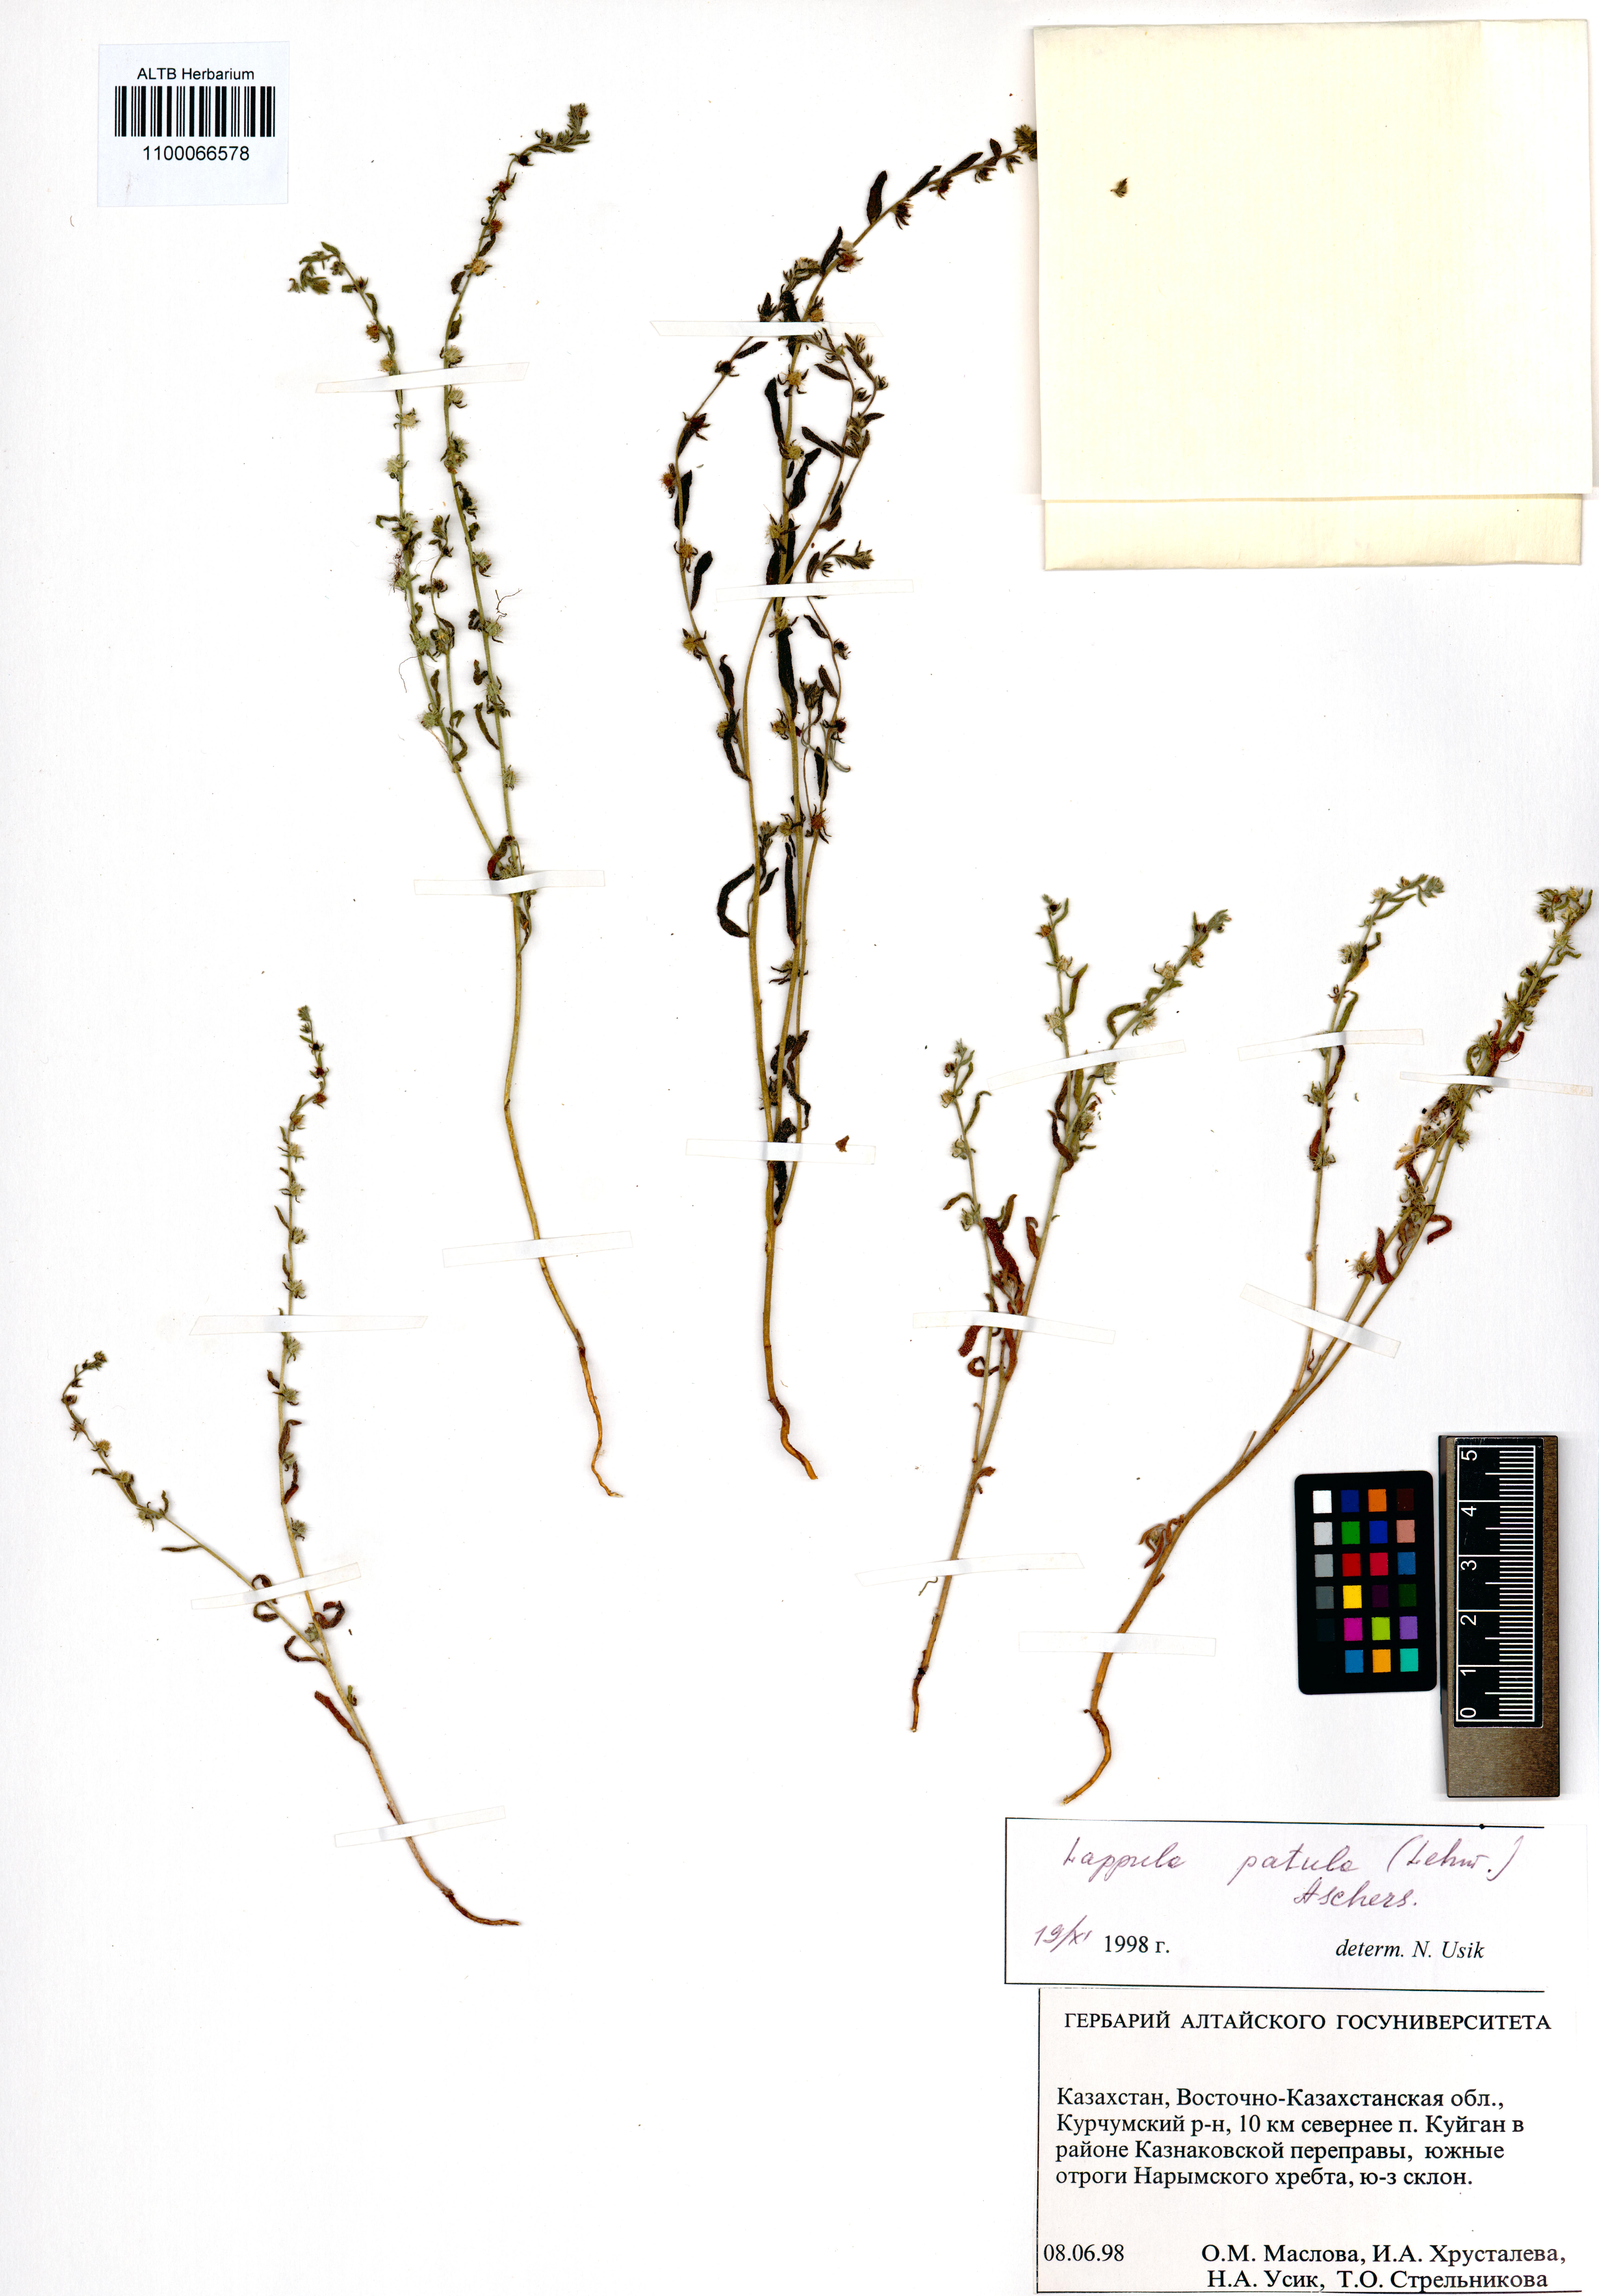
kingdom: Plantae
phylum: Tracheophyta
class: Magnoliopsida
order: Boraginales
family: Boraginaceae
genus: Lappula
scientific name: Lappula patula
